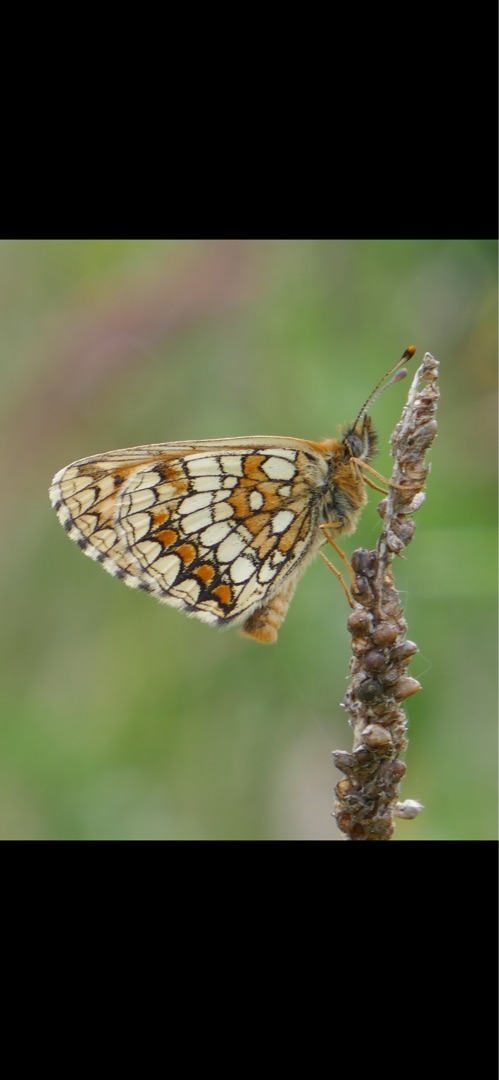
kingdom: Animalia
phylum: Arthropoda
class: Insecta
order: Lepidoptera
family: Nymphalidae
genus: Mellicta
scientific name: Mellicta athalia
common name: Brun pletvinge
